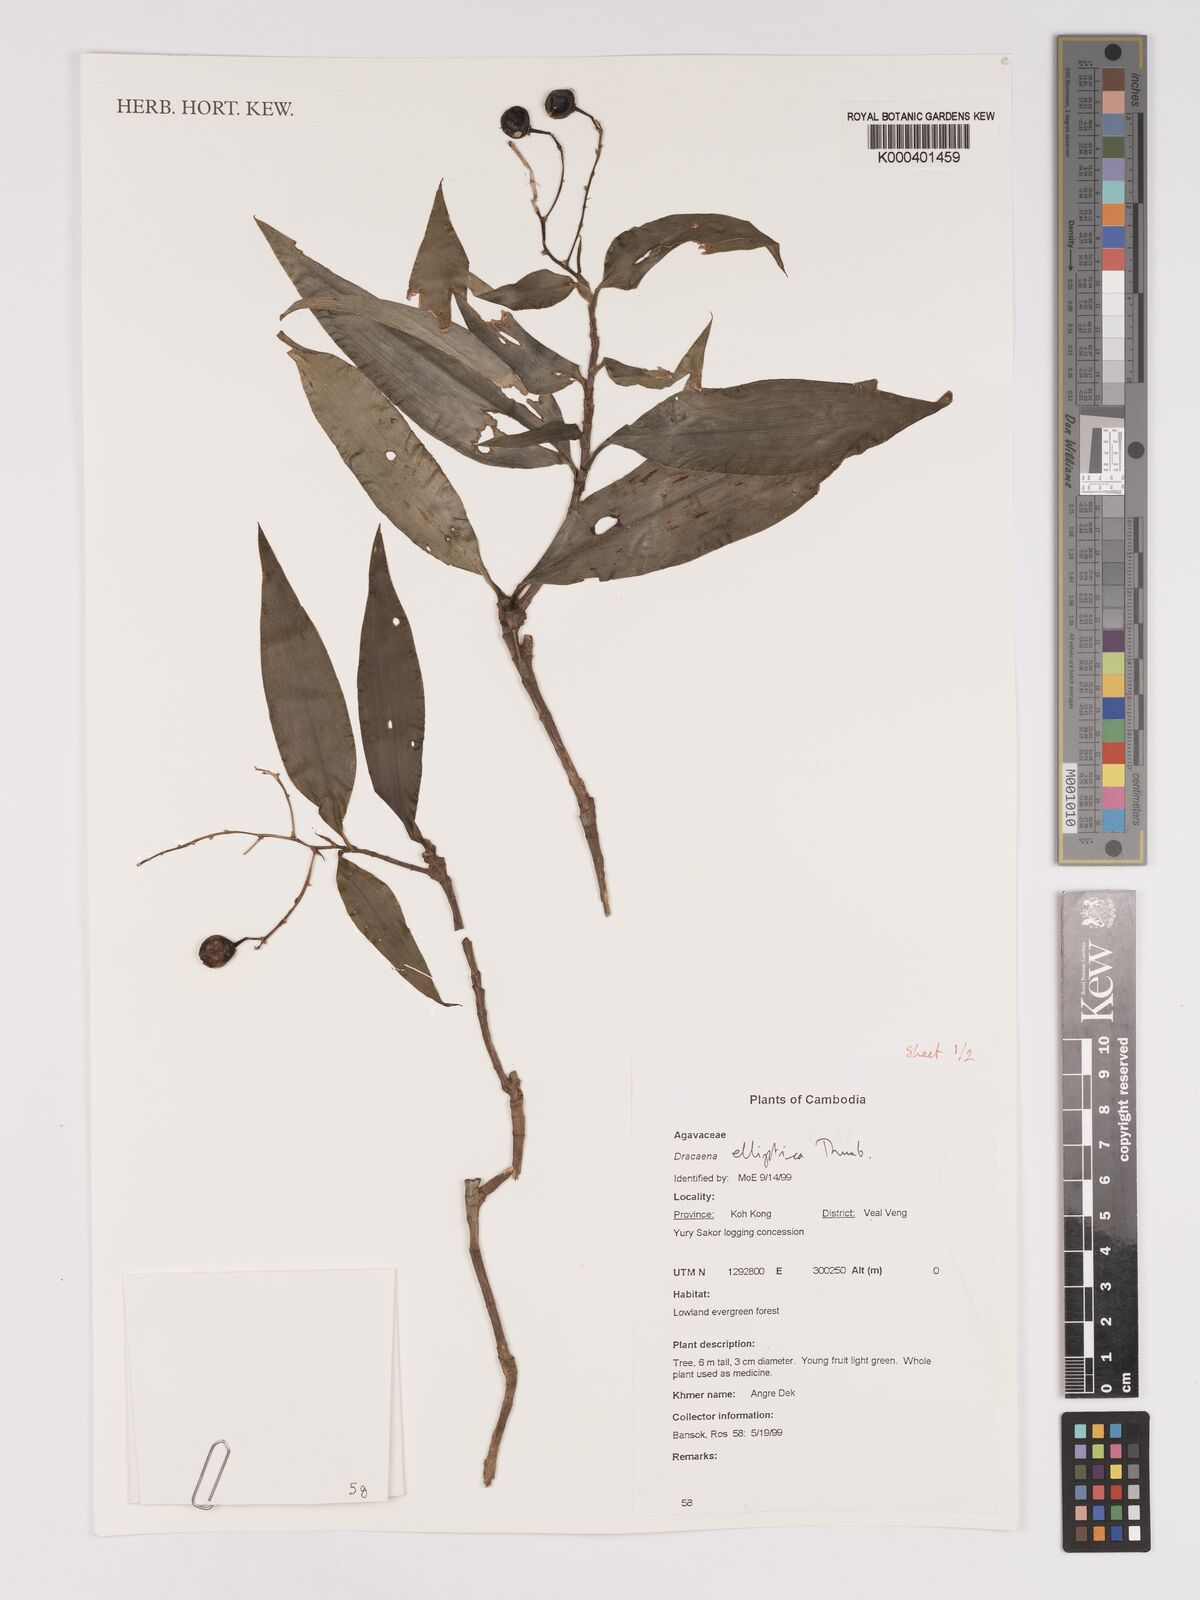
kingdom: Plantae
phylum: Tracheophyta
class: Liliopsida
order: Asparagales
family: Asparagaceae
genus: Dracaena
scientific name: Dracaena elliptica
